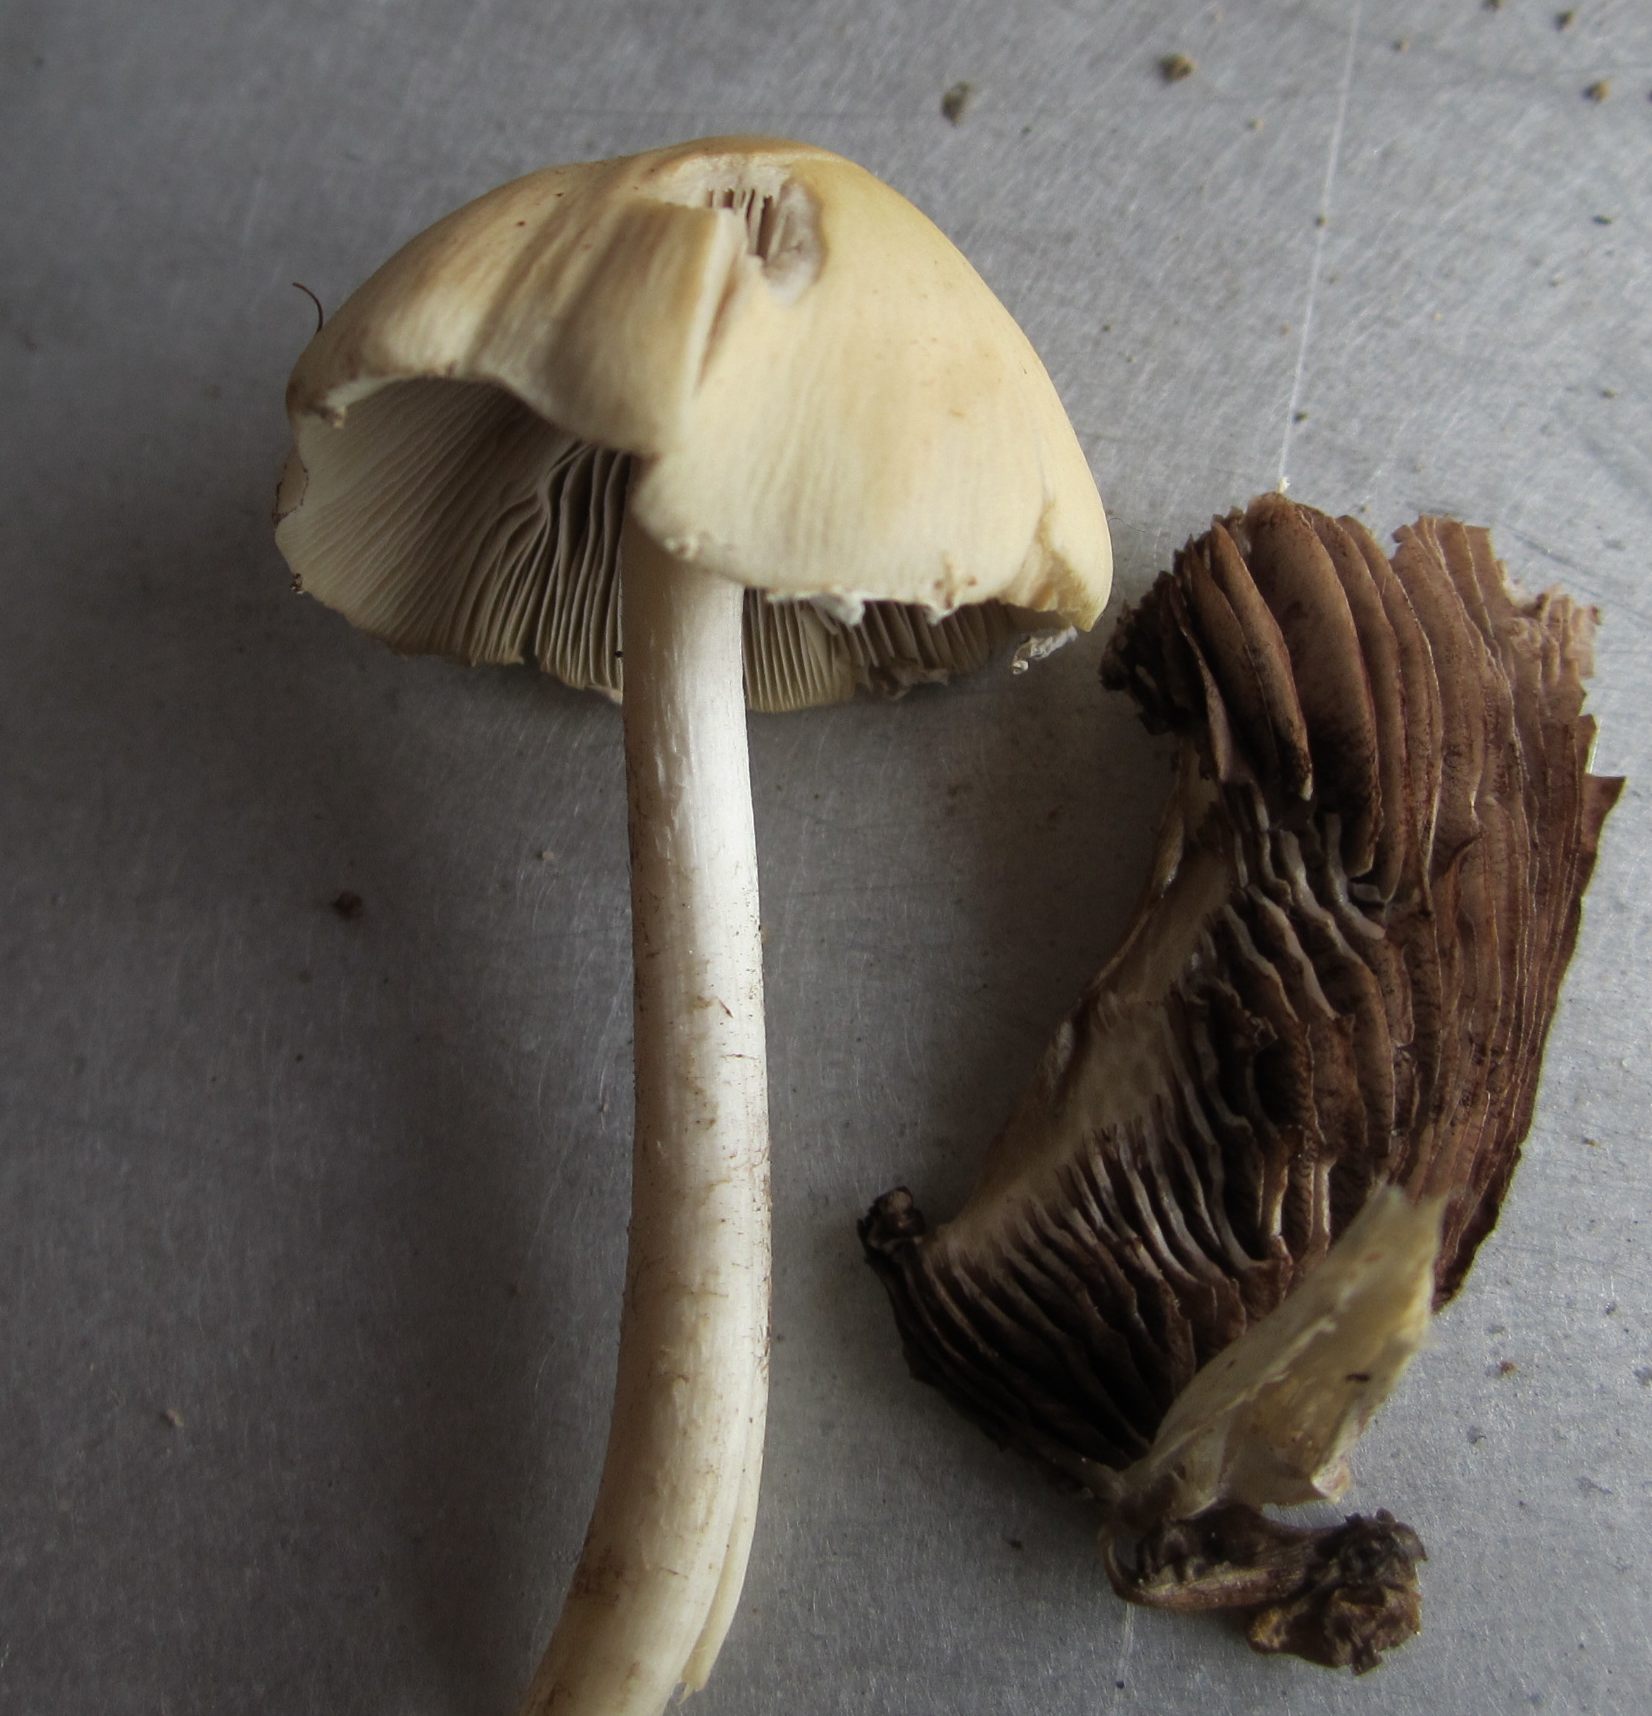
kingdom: Fungi
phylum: Basidiomycota
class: Agaricomycetes
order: Agaricales
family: Psathyrellaceae
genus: Candolleomyces
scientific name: Candolleomyces candolleanus
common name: Candolles mørkhat
